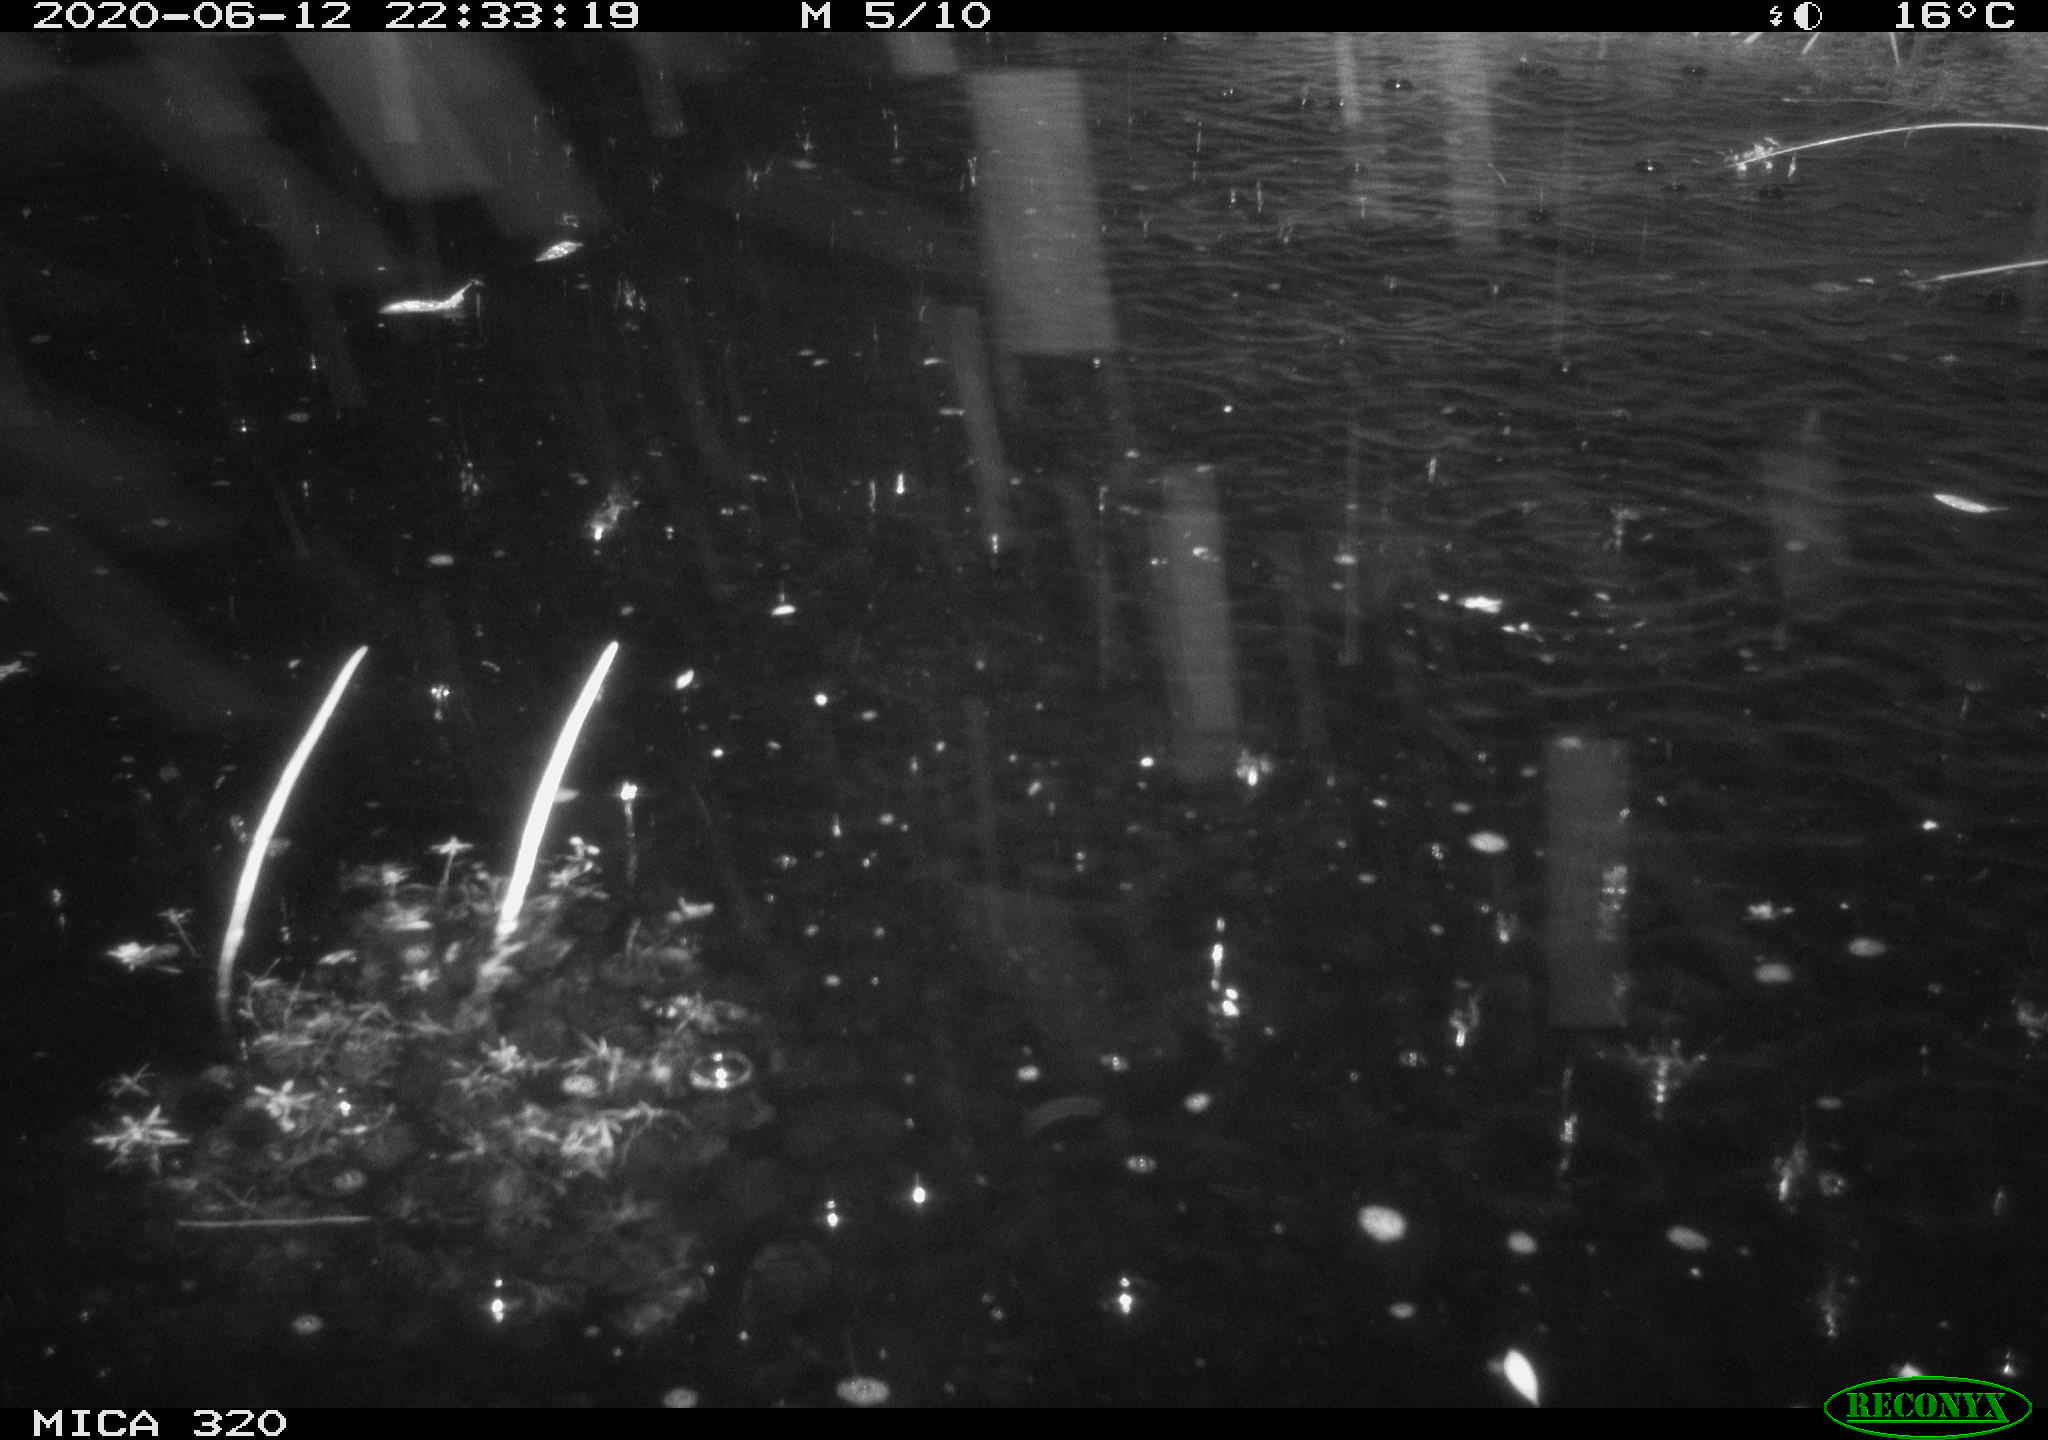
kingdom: Animalia
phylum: Chordata
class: Aves
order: Anseriformes
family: Anatidae
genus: Anas
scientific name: Anas platyrhynchos
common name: Mallard
